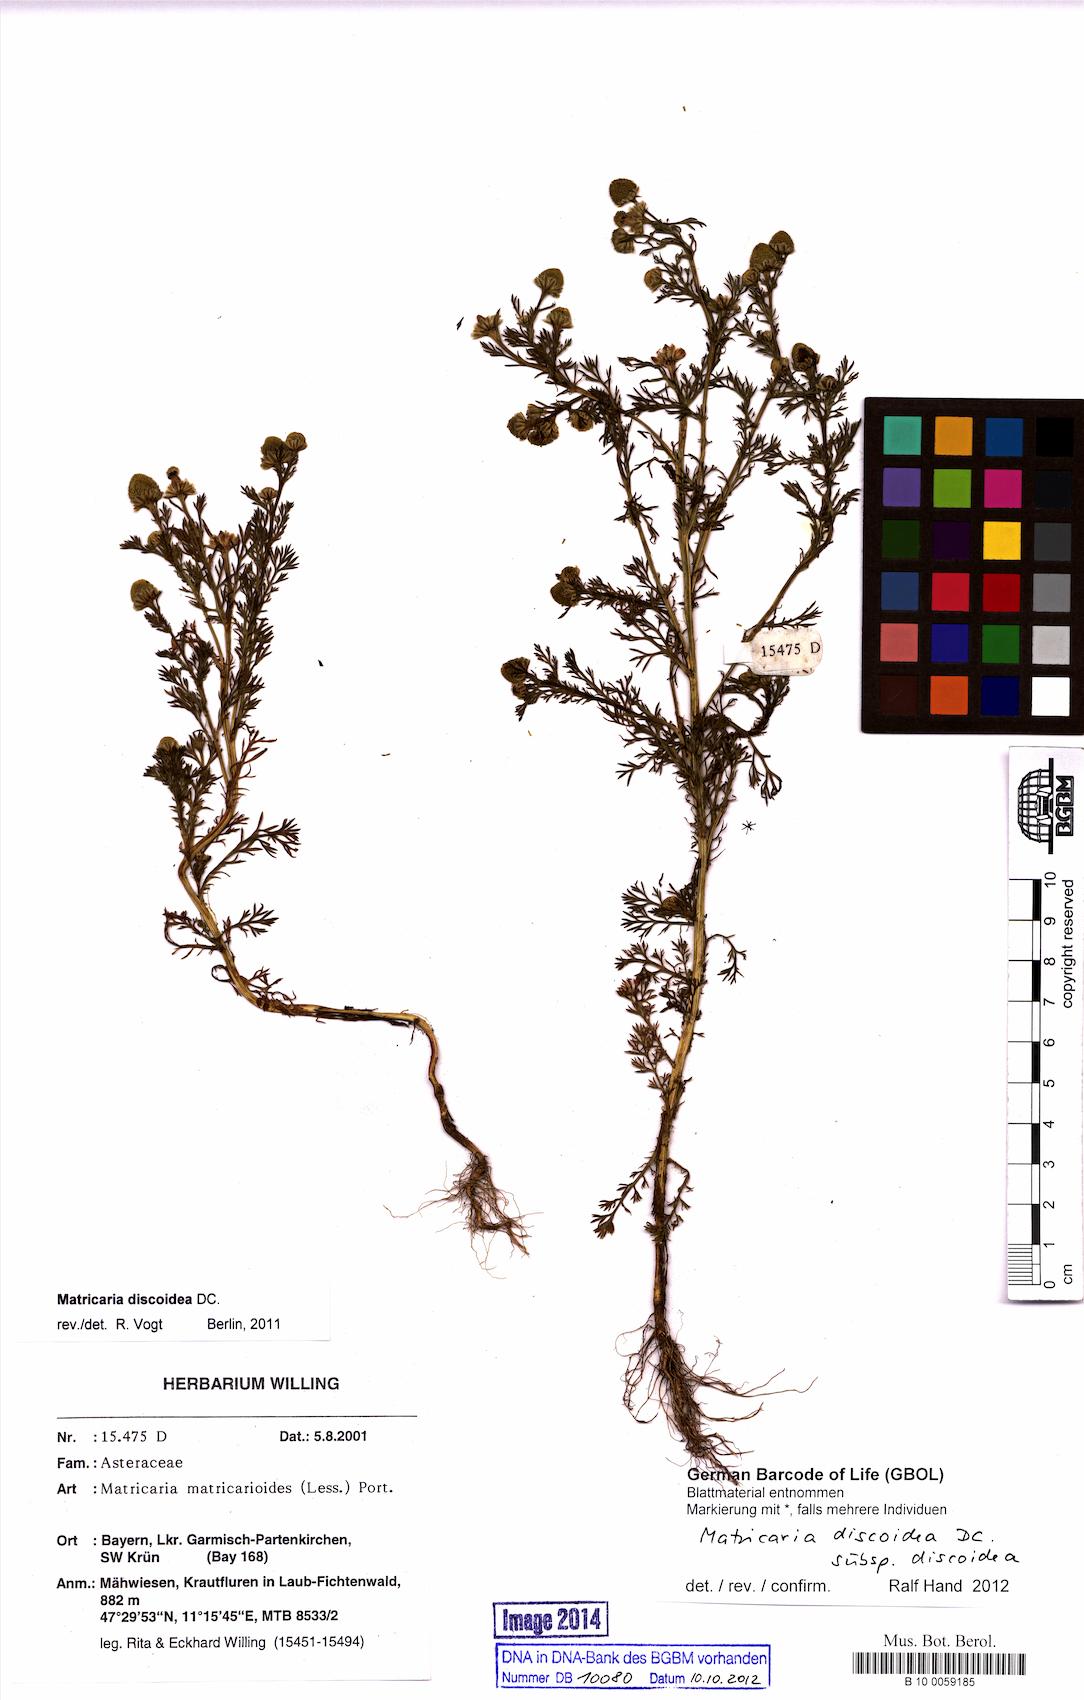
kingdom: Plantae
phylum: Tracheophyta
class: Magnoliopsida
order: Asterales
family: Asteraceae
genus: Matricaria
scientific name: Matricaria discoidea
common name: Disc mayweed
